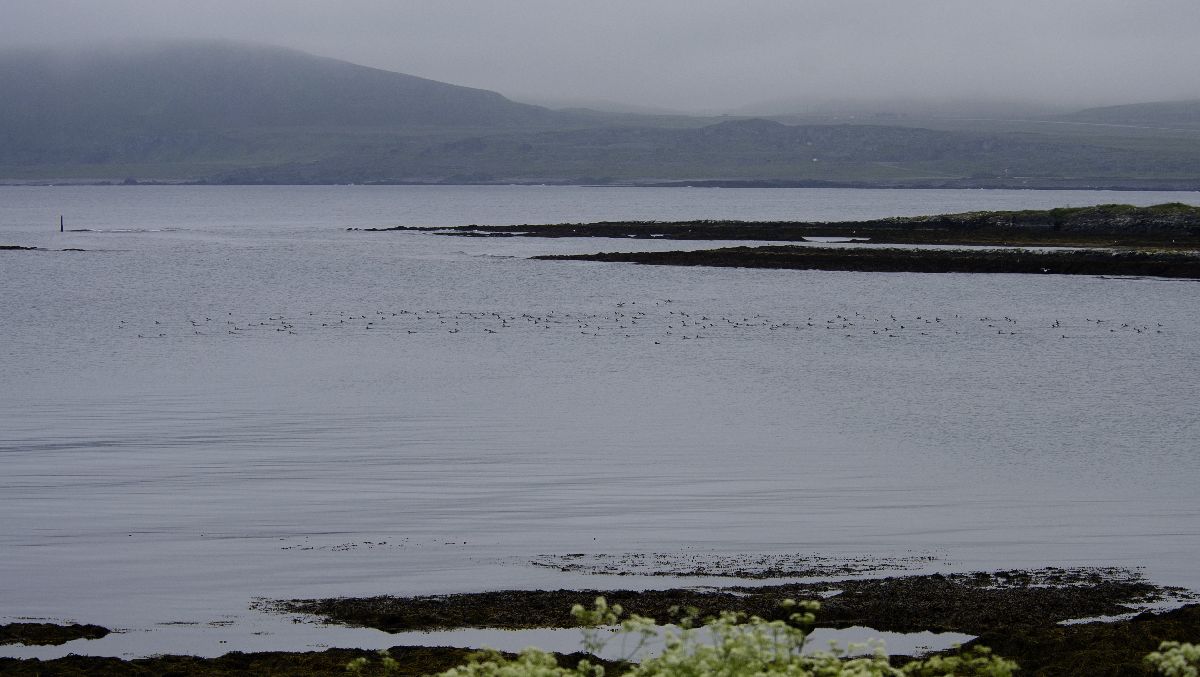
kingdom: Animalia
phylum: Chordata
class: Aves
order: Anseriformes
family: Anatidae
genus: Mergus
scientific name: Mergus merganser
